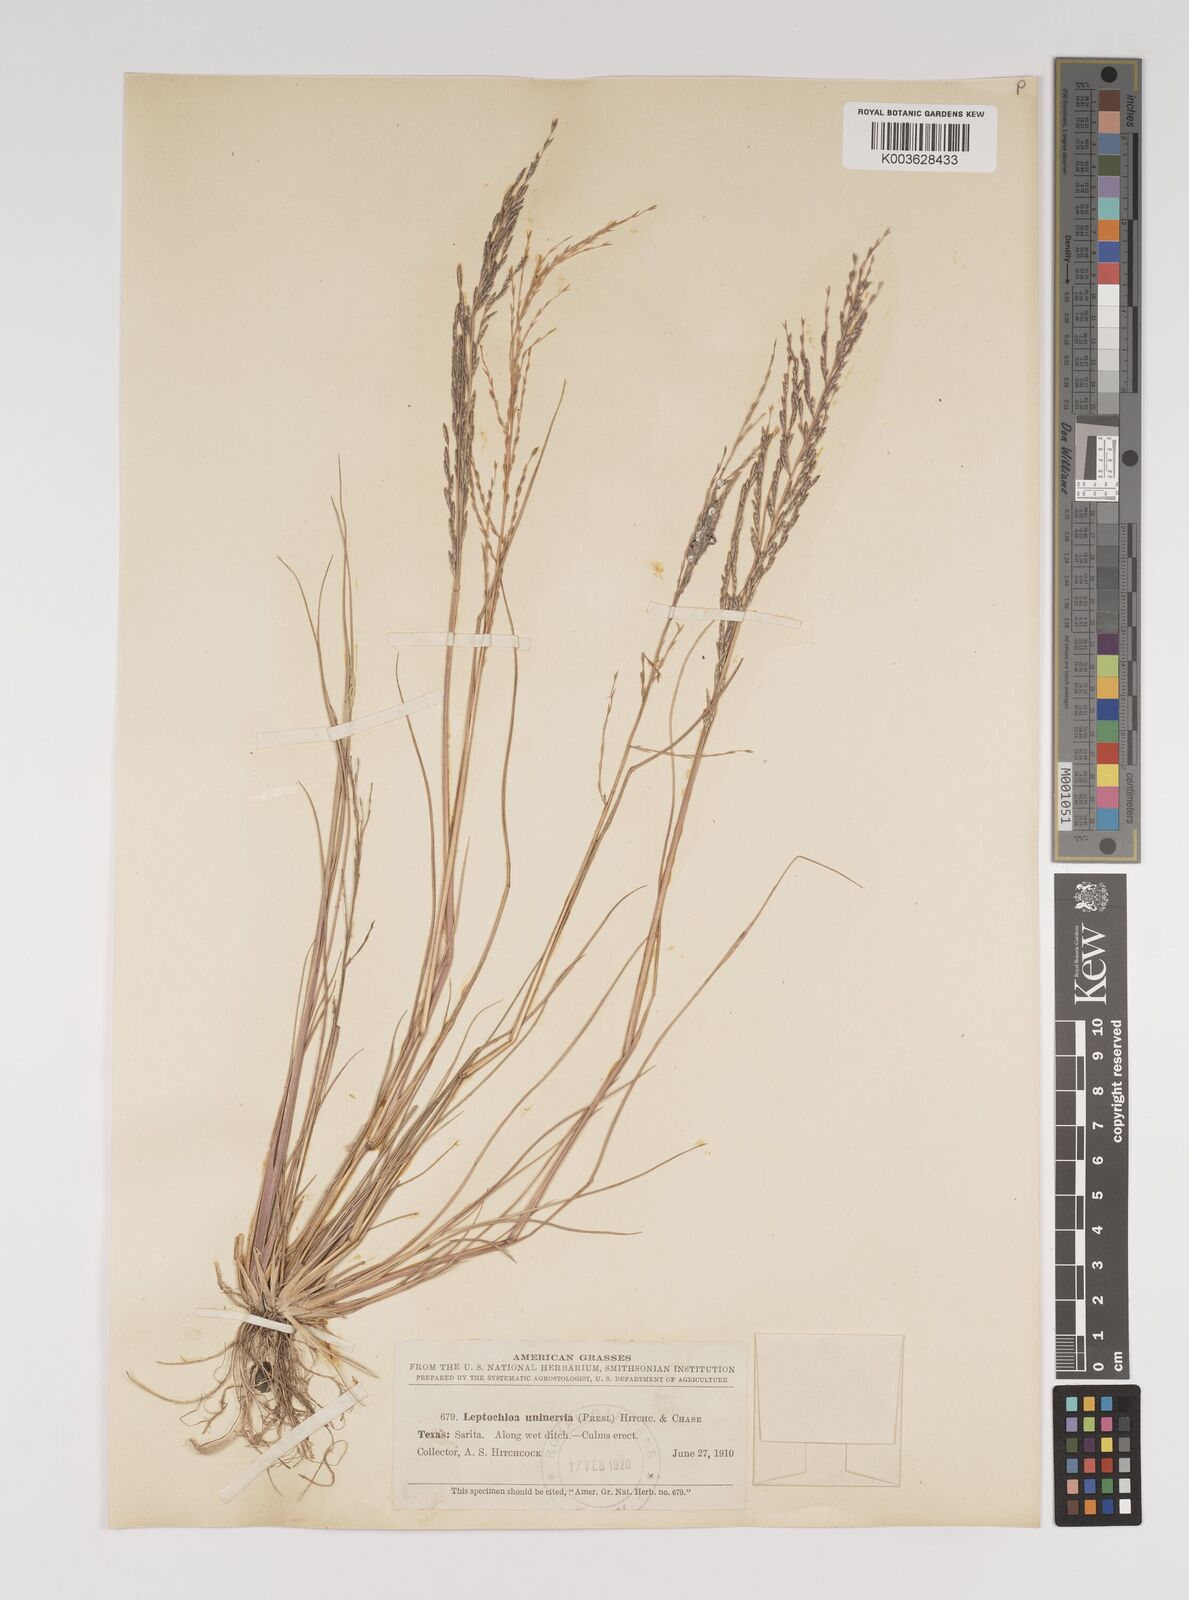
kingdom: Plantae
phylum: Tracheophyta
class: Liliopsida
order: Poales
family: Poaceae
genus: Diplachne
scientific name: Diplachne fusca
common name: Brown beetle grass
